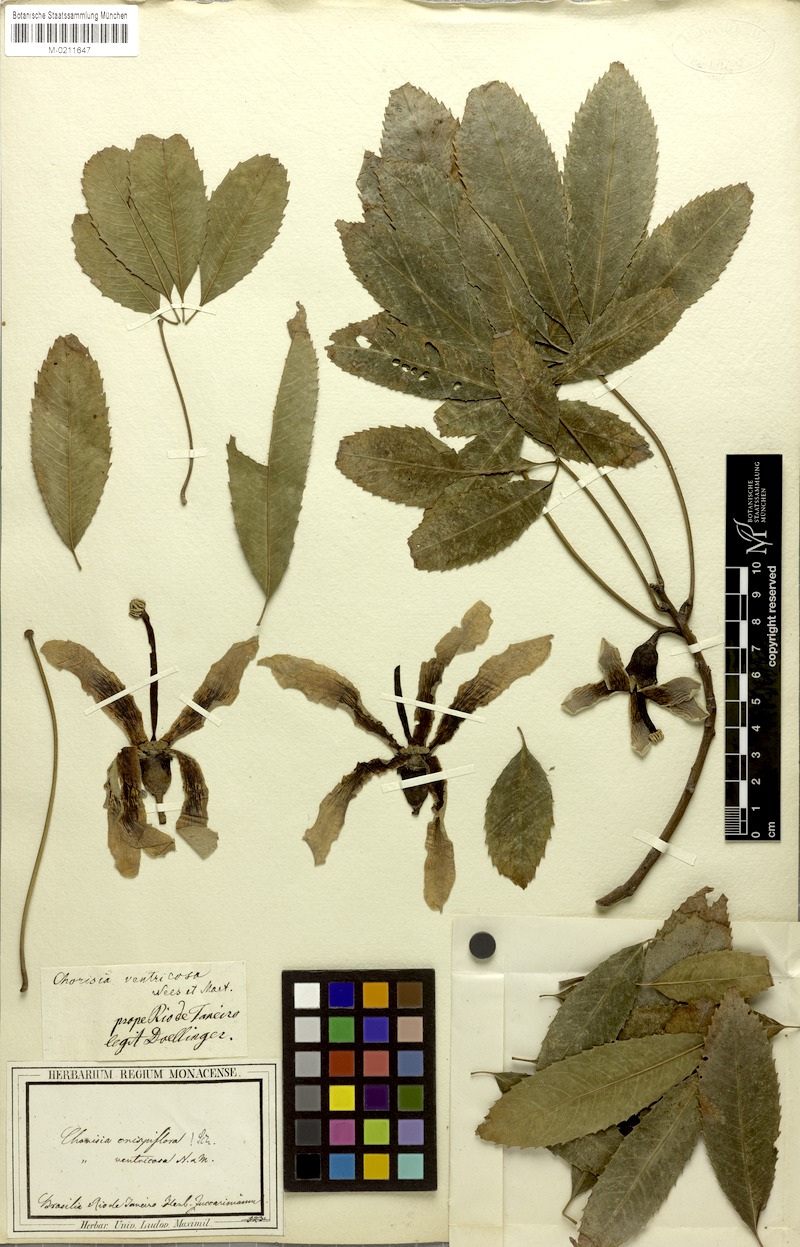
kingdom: Plantae
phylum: Tracheophyta
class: Magnoliopsida
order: Malvales
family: Malvaceae
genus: Ceiba
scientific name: Ceiba crispiflora
